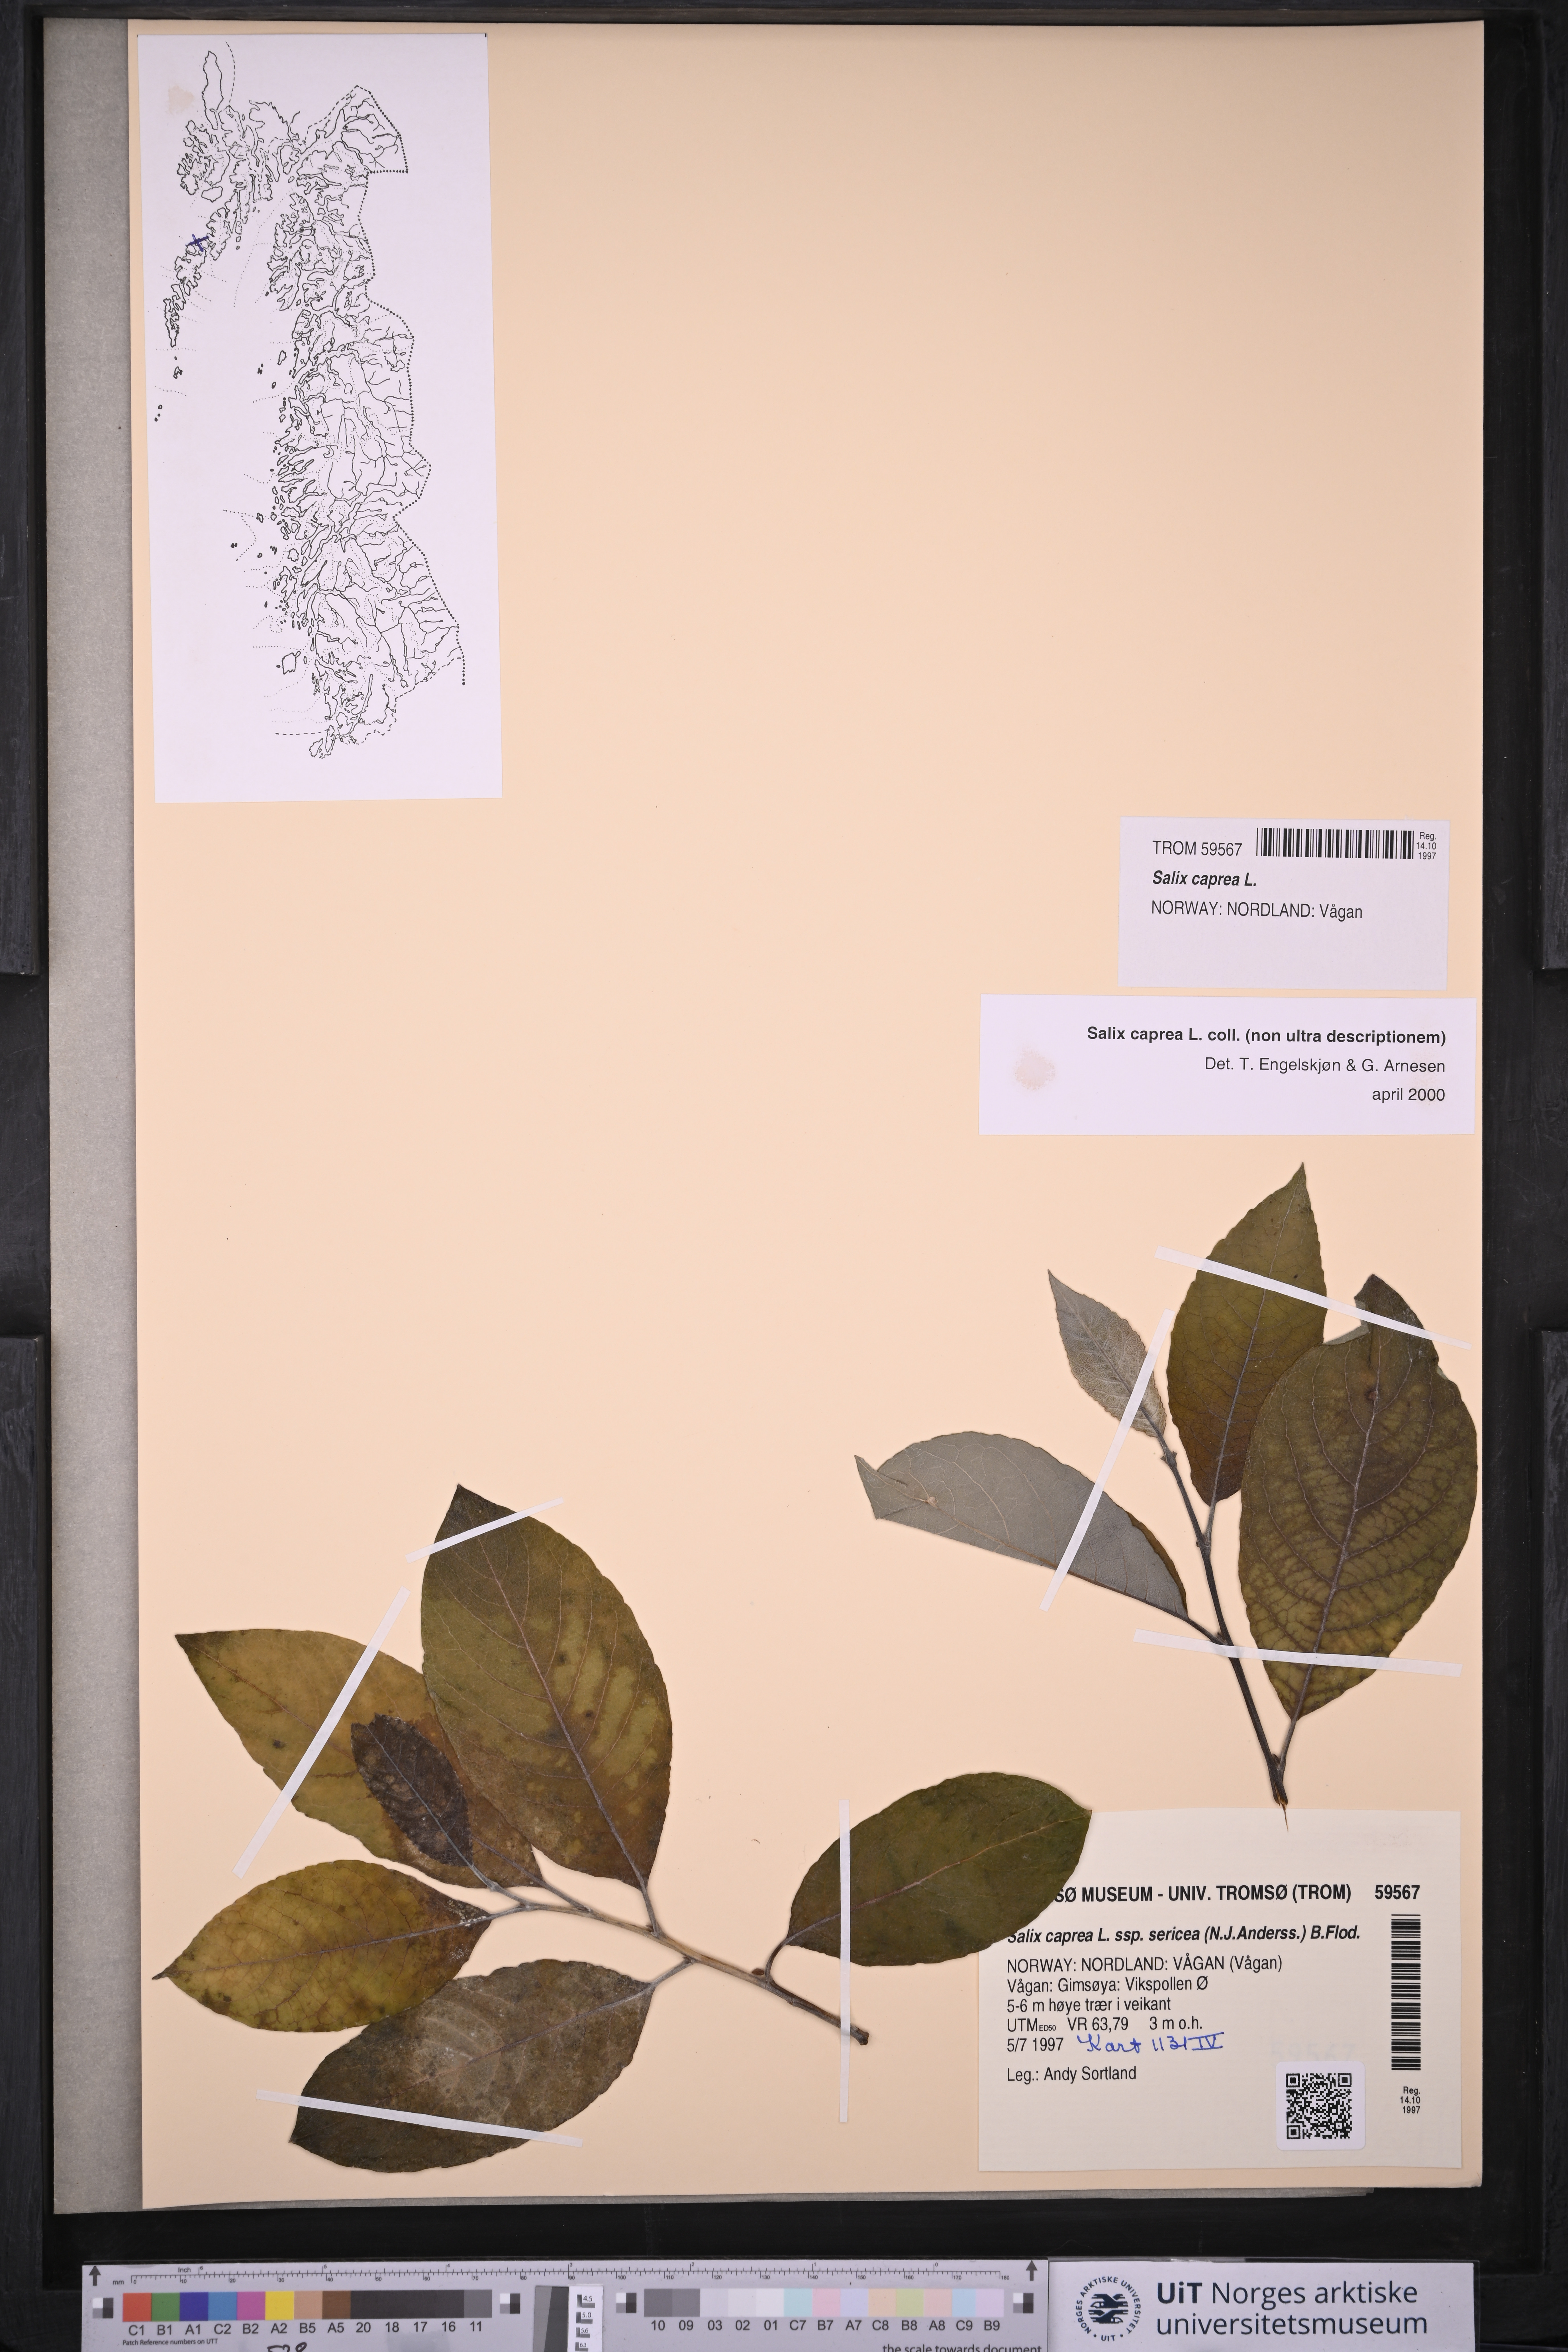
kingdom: Plantae
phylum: Tracheophyta
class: Magnoliopsida
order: Malpighiales
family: Salicaceae
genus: Salix
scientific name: Salix caprea
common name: Goat willow
